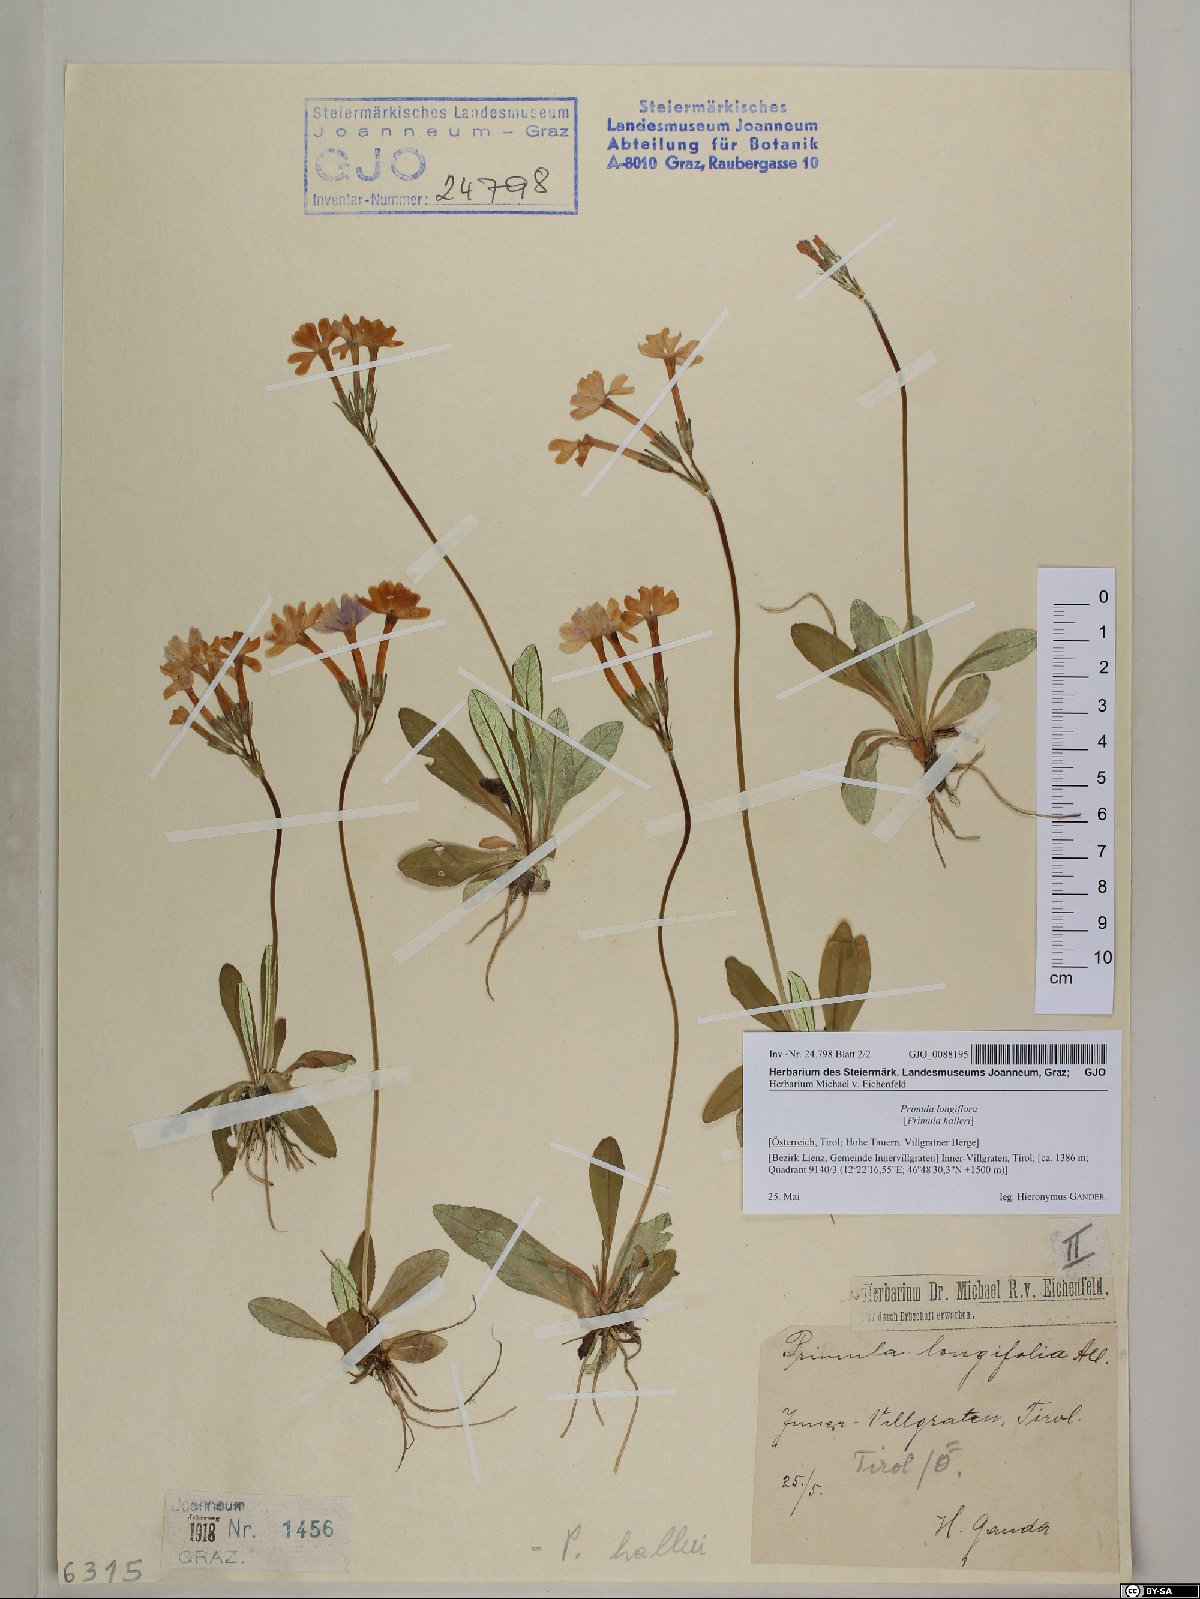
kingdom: Plantae
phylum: Tracheophyta
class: Magnoliopsida
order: Ericales
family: Primulaceae
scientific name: Primulaceae
